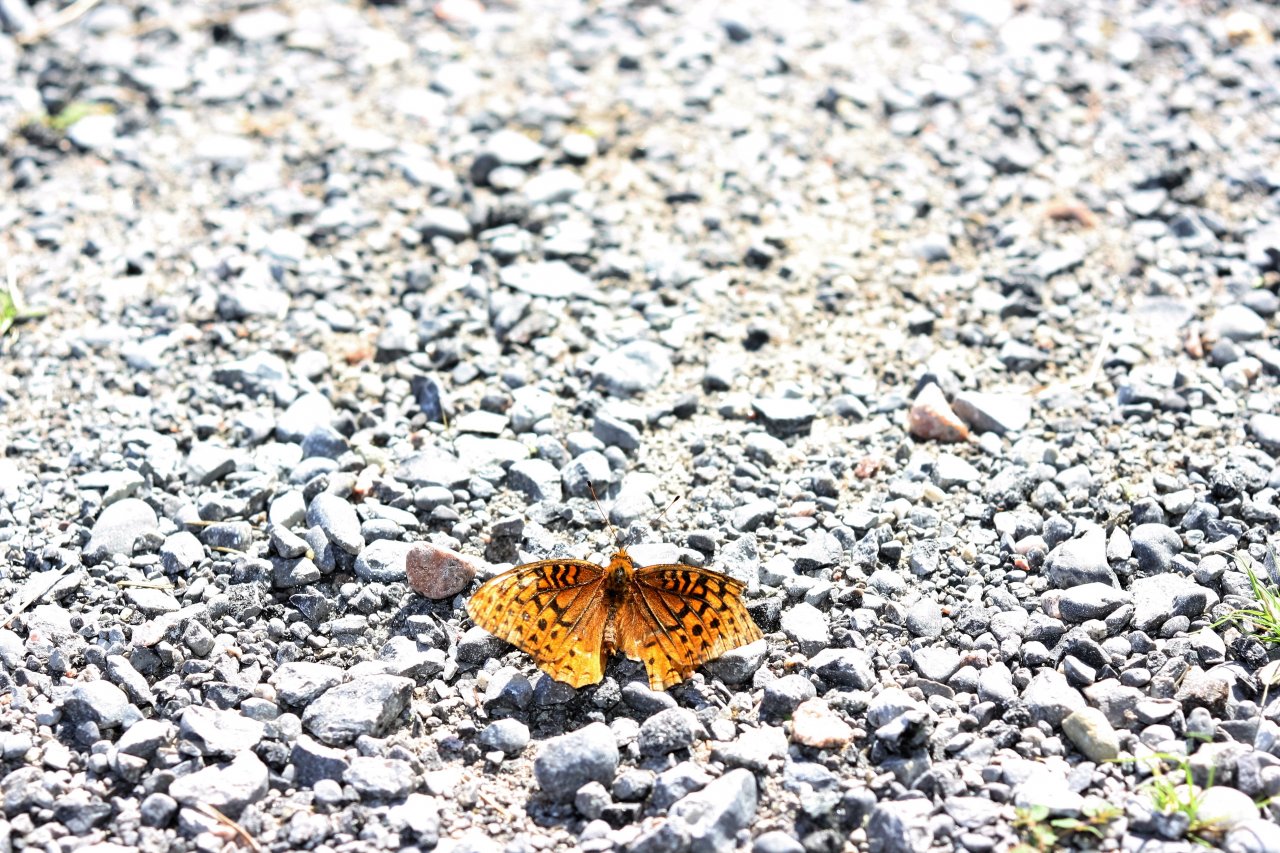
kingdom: Animalia
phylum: Arthropoda
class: Insecta
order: Lepidoptera
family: Nymphalidae
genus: Speyeria
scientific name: Speyeria cybele
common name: Great Spangled Fritillary
